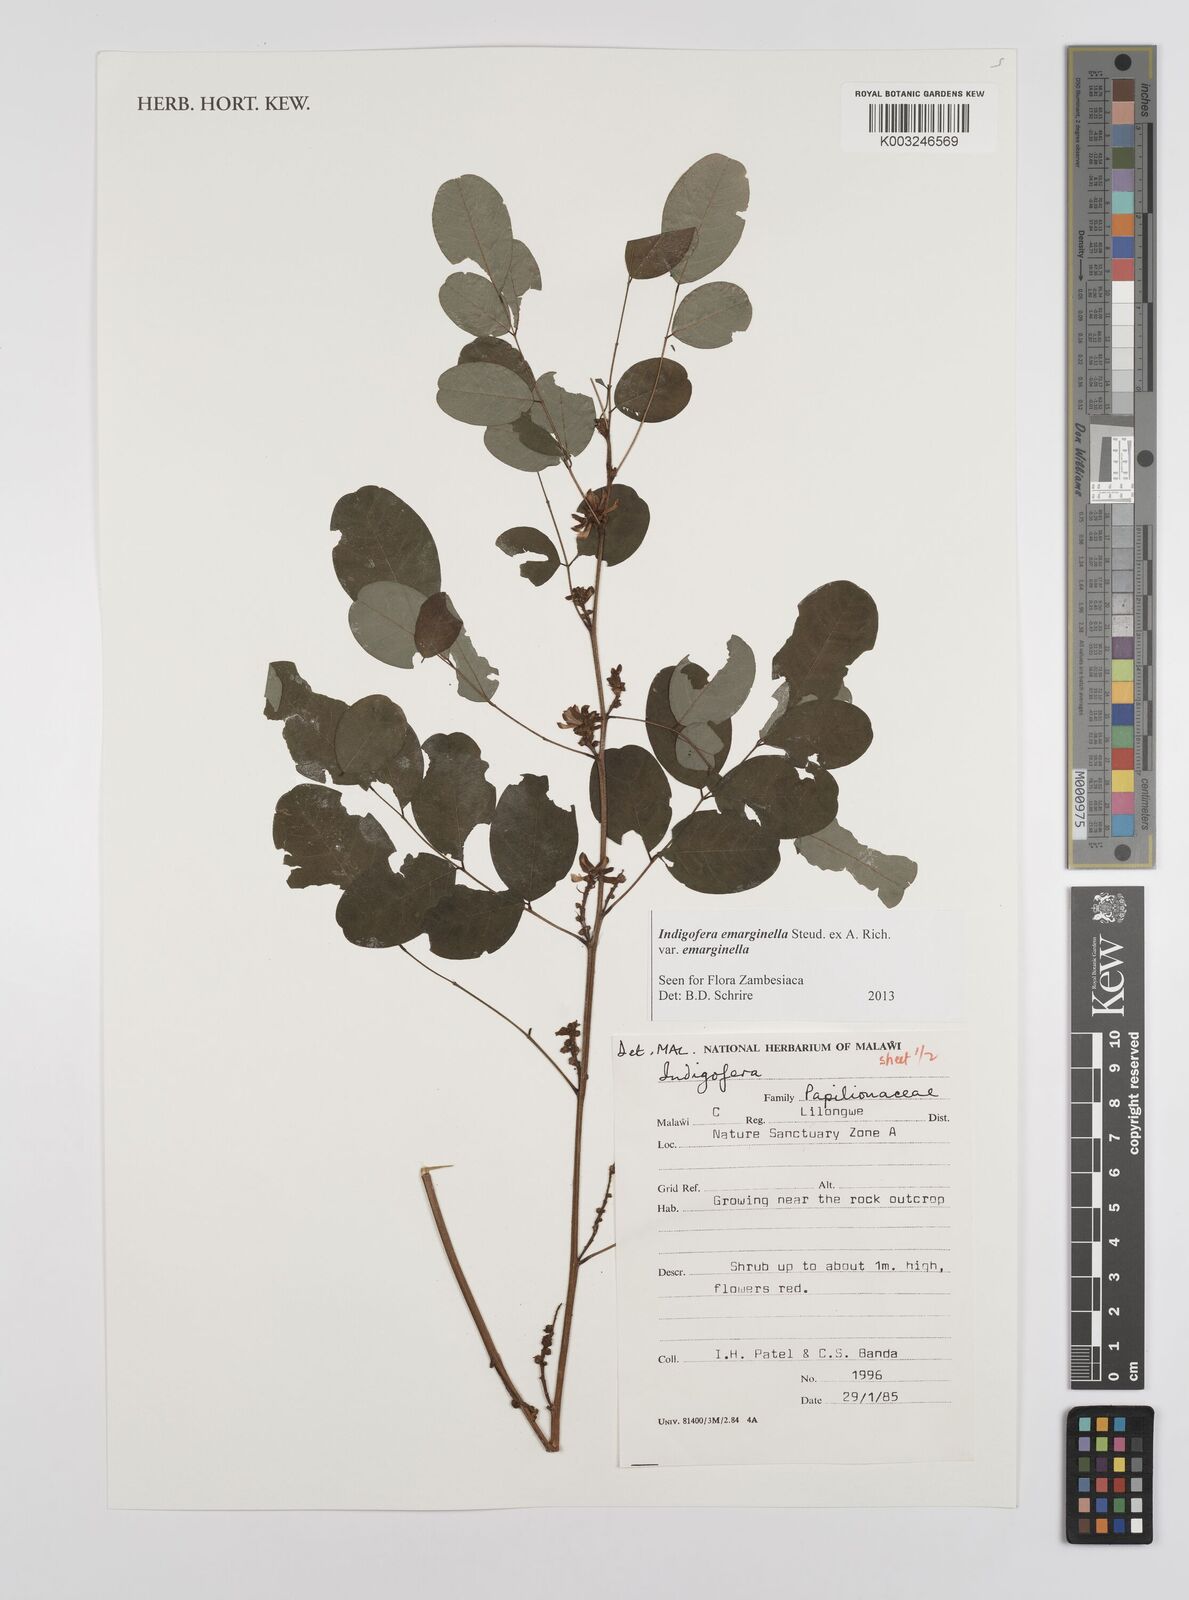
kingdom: Plantae
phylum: Tracheophyta
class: Magnoliopsida
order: Fabales
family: Fabaceae
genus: Indigofera
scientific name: Indigofera emarginella
